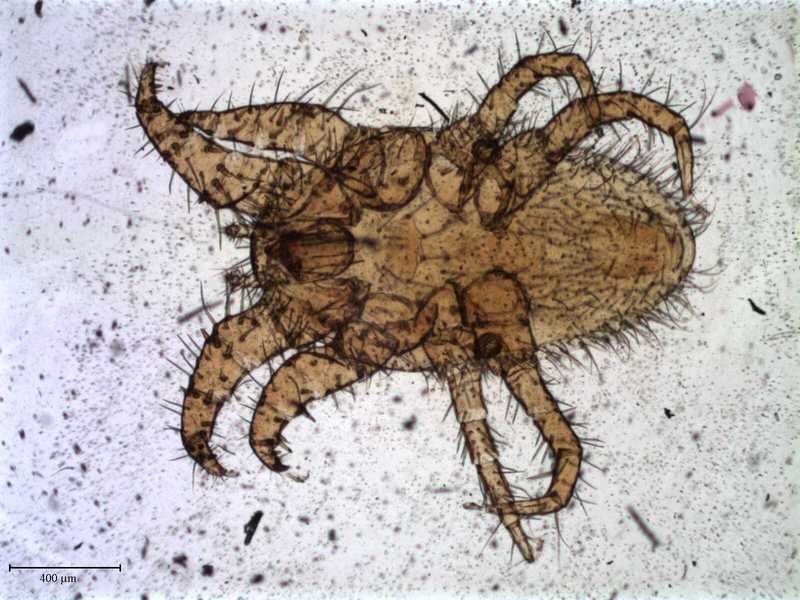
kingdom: Animalia
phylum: Arthropoda
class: Arachnida
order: Mesostigmata
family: Laelapidae
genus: Dinogamasus
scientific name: Dinogamasus
